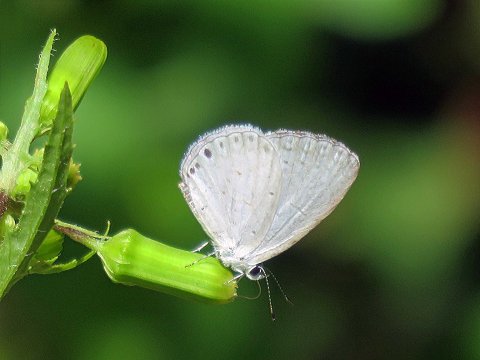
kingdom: Animalia
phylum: Arthropoda
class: Insecta
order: Lepidoptera
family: Lycaenidae
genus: Cyaniris
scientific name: Cyaniris neglecta
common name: Summer Azure
